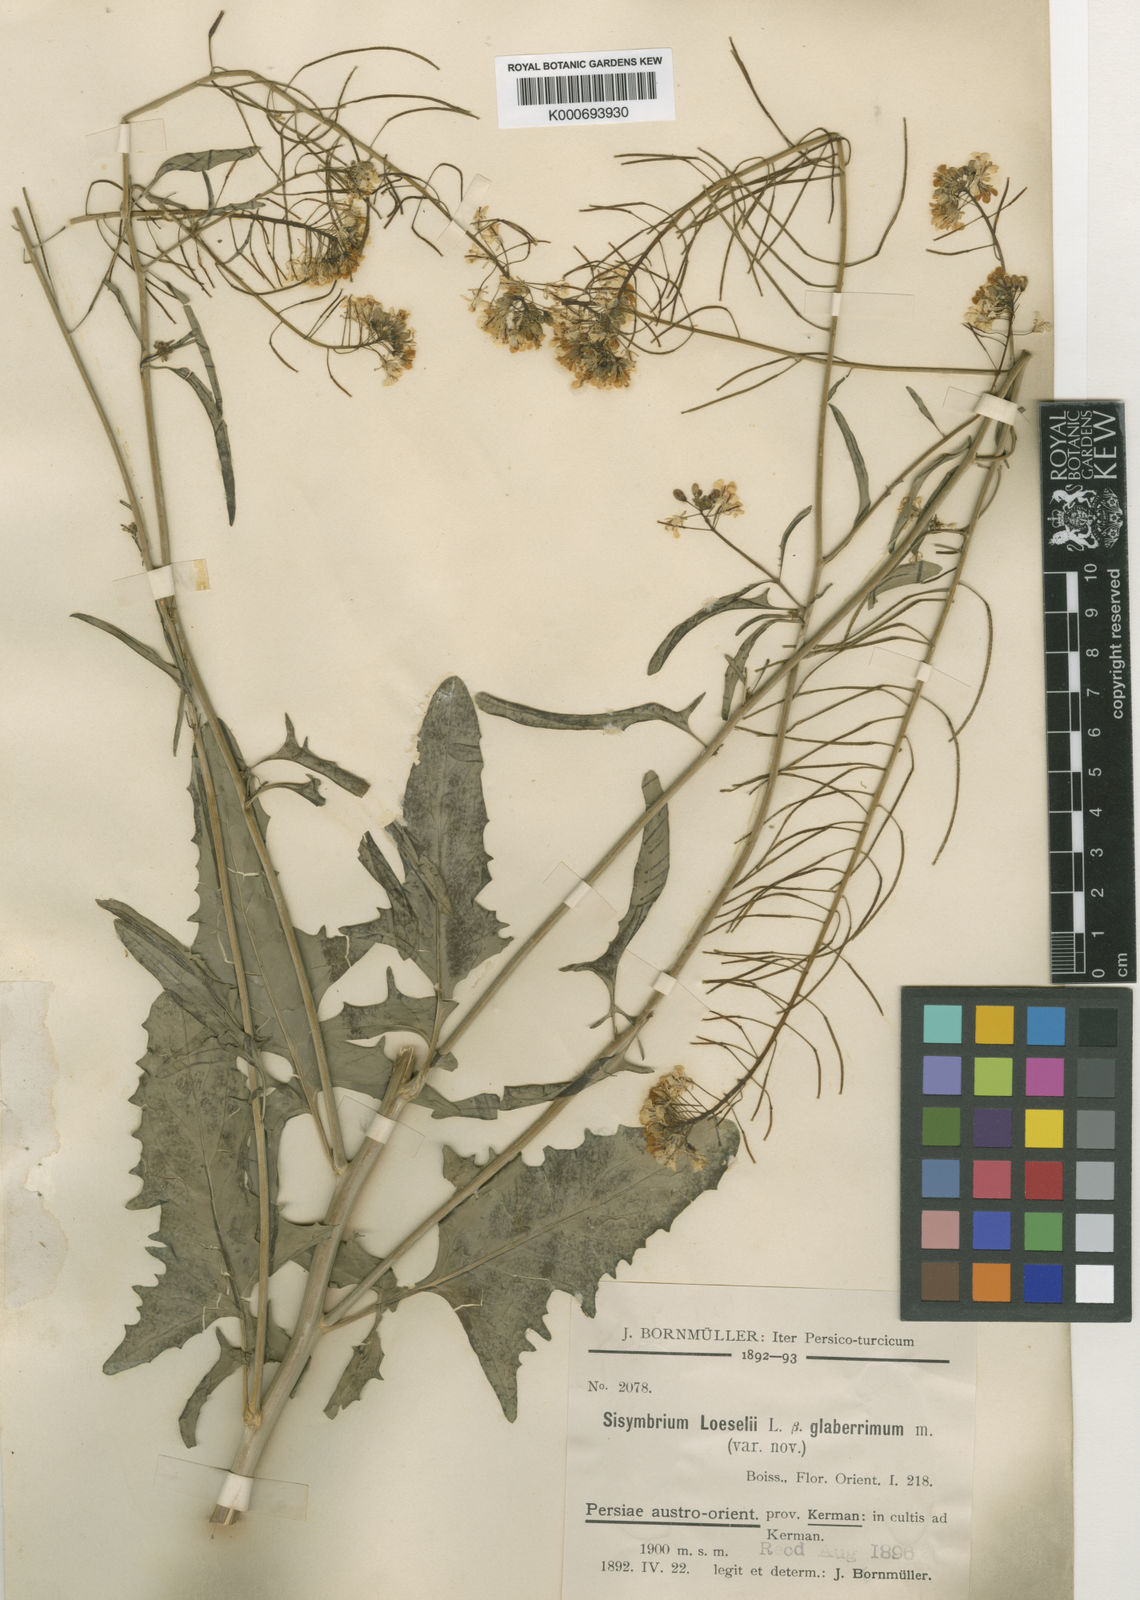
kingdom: Plantae
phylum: Tracheophyta
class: Magnoliopsida
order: Brassicales
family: Brassicaceae
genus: Sisymbrium
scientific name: Sisymbrium loeselii
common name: False london-rocket
